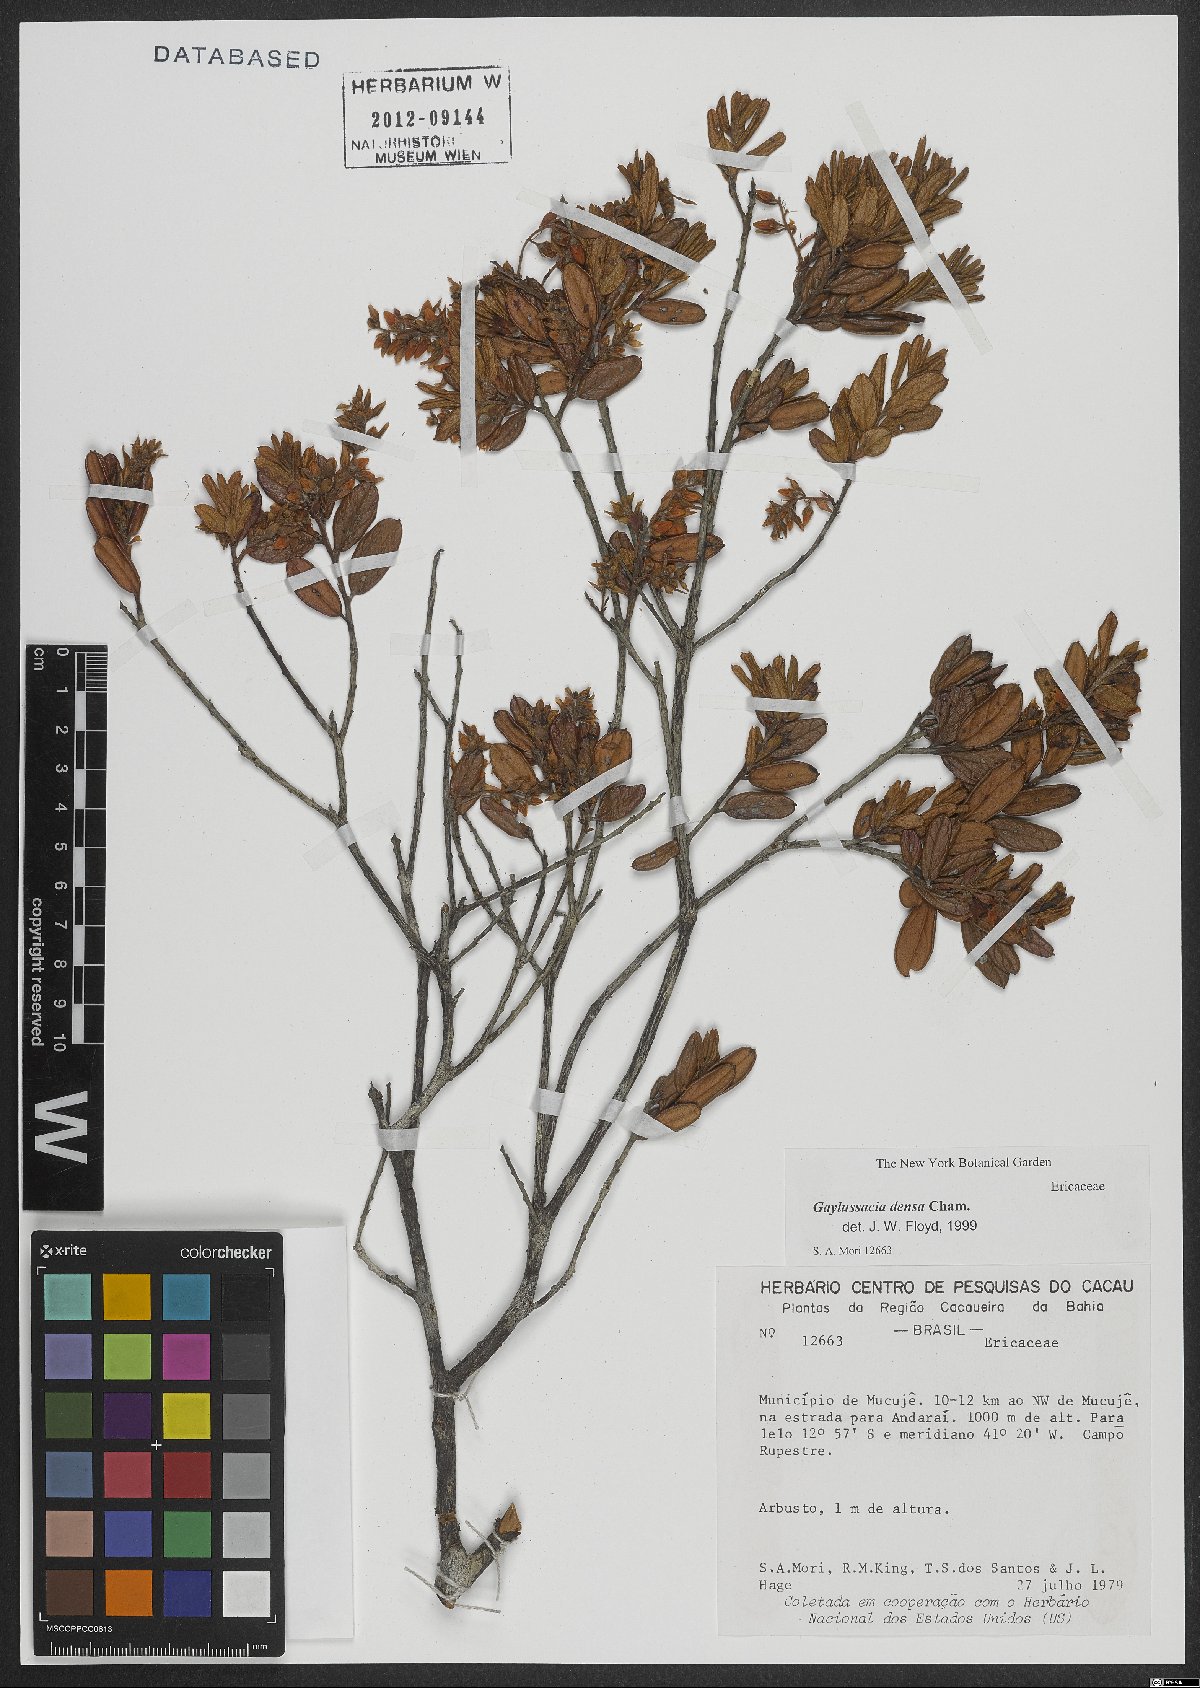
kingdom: Plantae
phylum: Tracheophyta
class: Magnoliopsida
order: Ericales
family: Ericaceae
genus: Gaylussacia
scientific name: Gaylussacia densa
